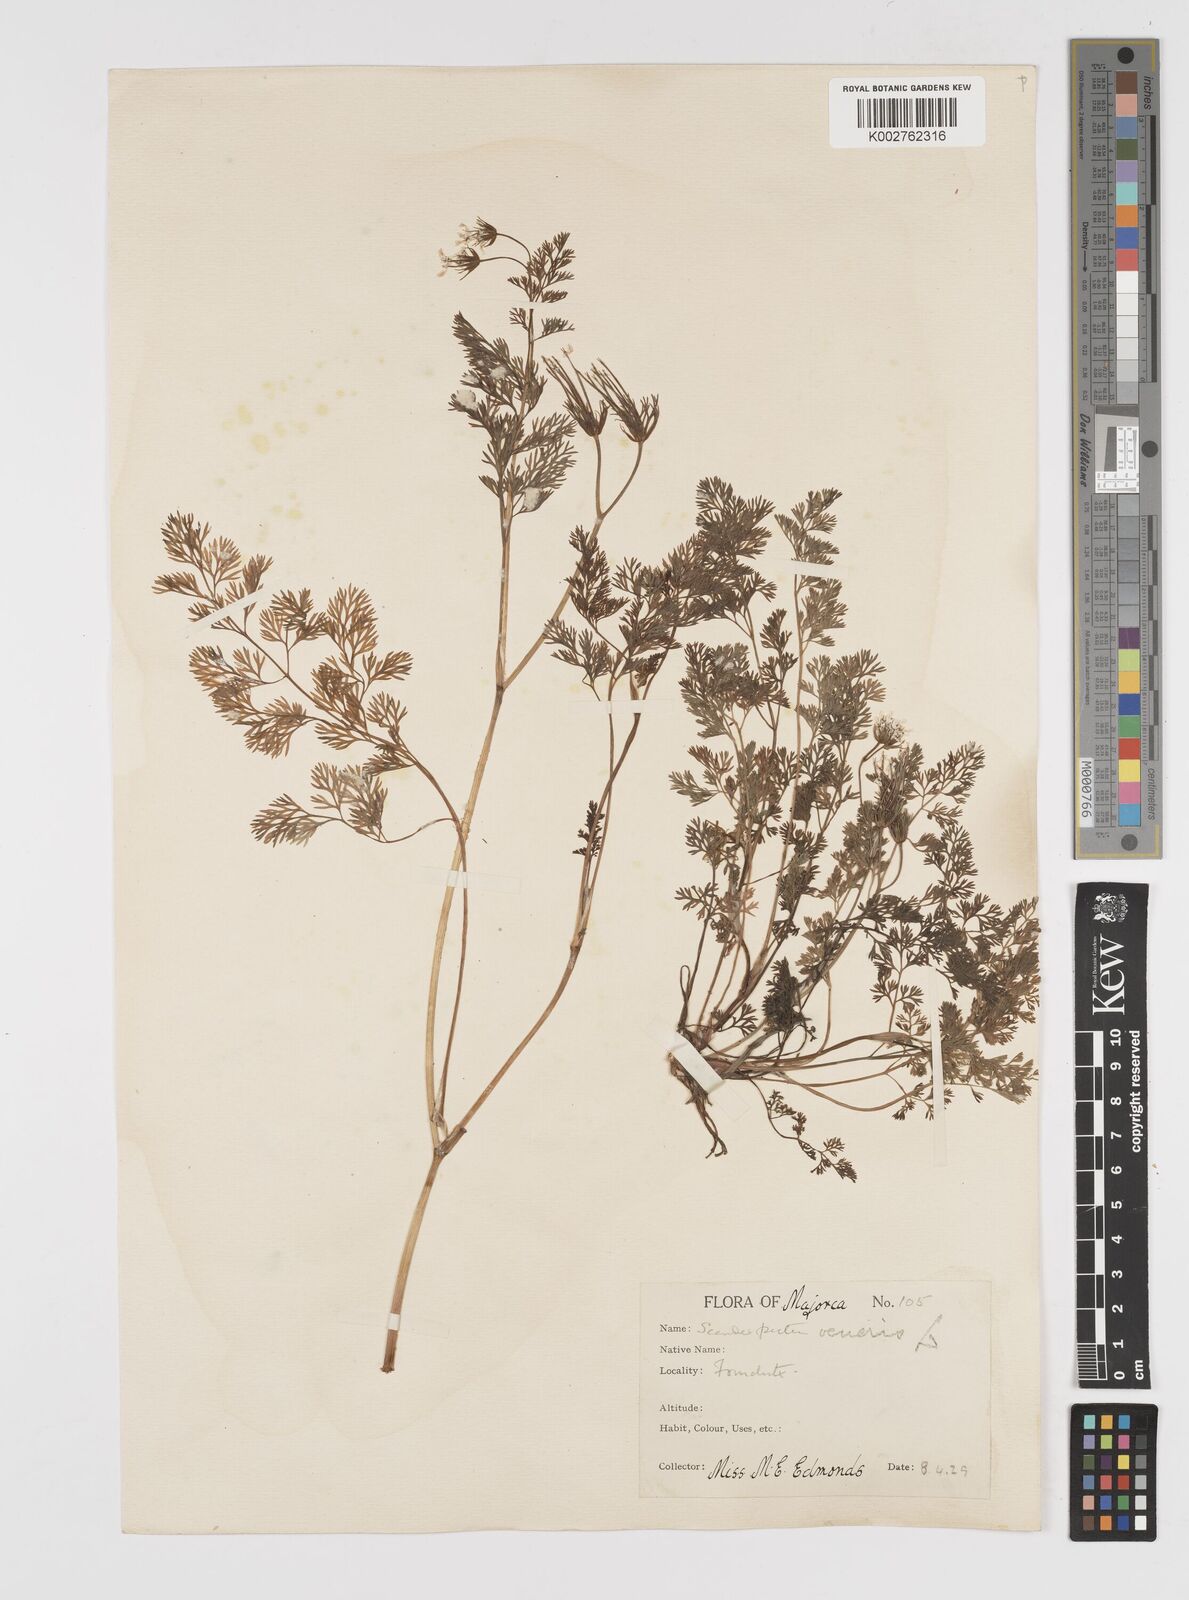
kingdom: Plantae
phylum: Tracheophyta
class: Magnoliopsida
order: Apiales
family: Apiaceae
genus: Scandix
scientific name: Scandix pecten-veneris
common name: Shepherd's-needle
